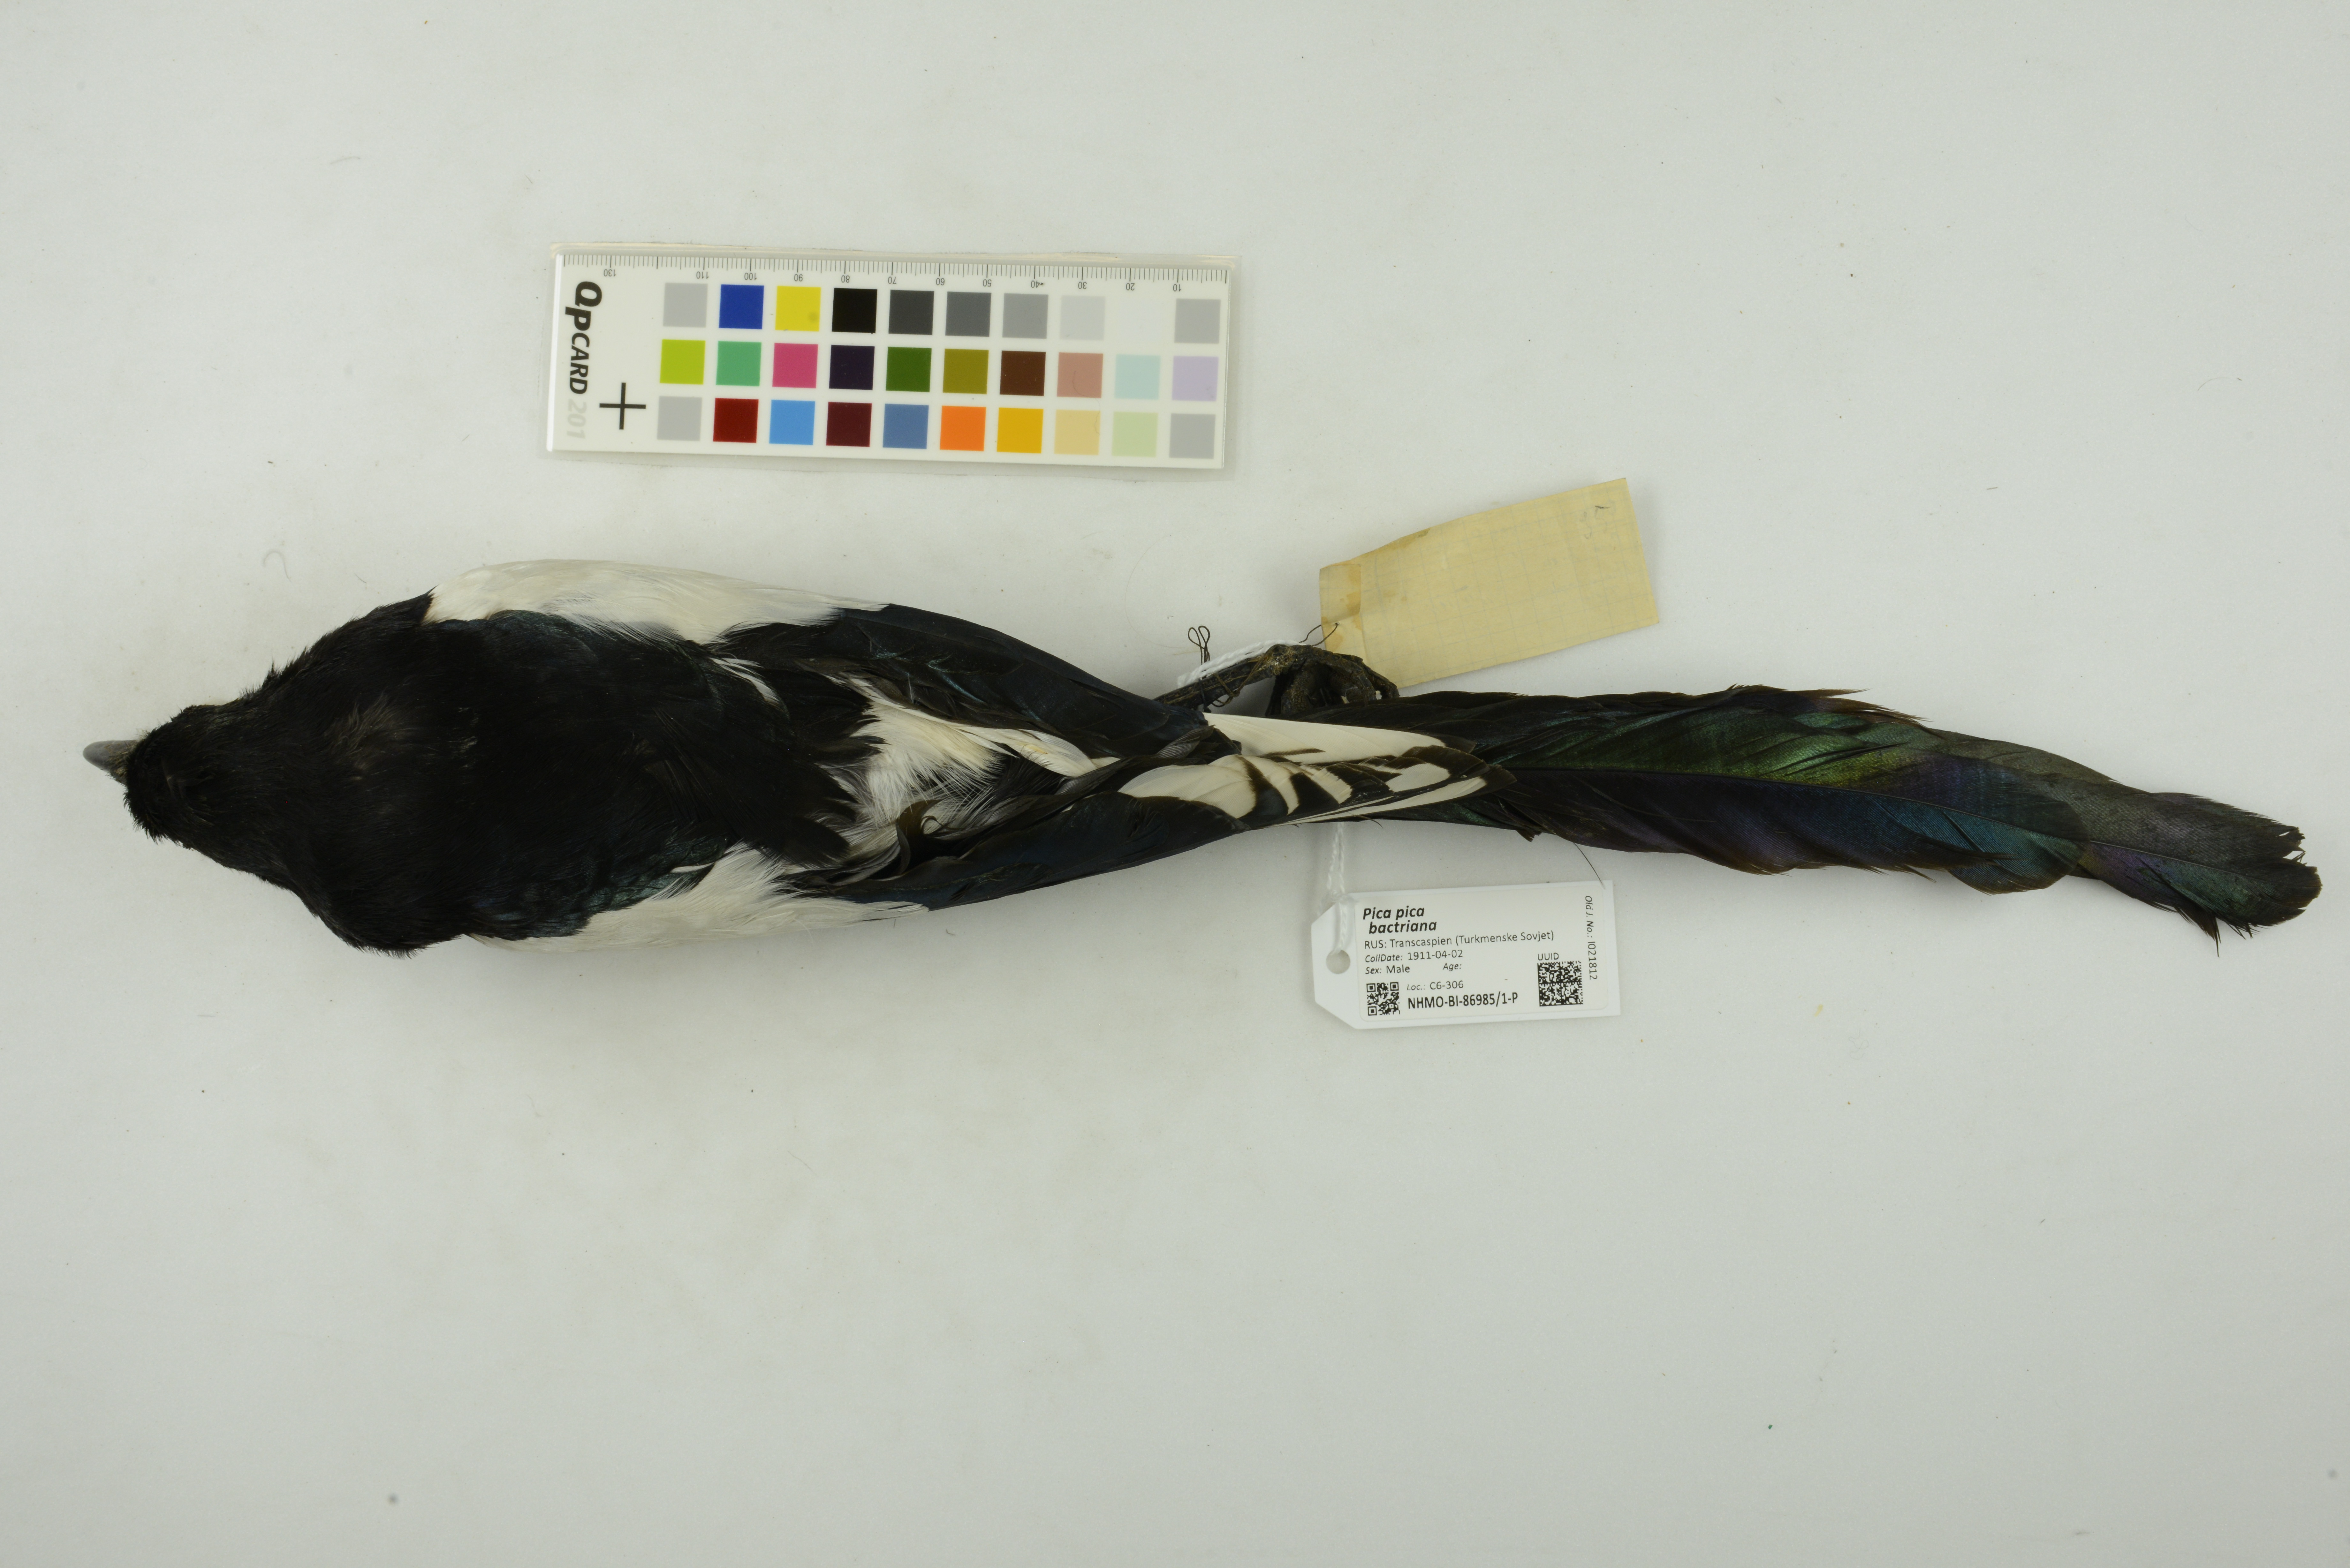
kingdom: Animalia
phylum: Chordata
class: Aves
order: Passeriformes
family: Corvidae
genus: Pica
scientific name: Pica pica
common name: Eurasian magpie
